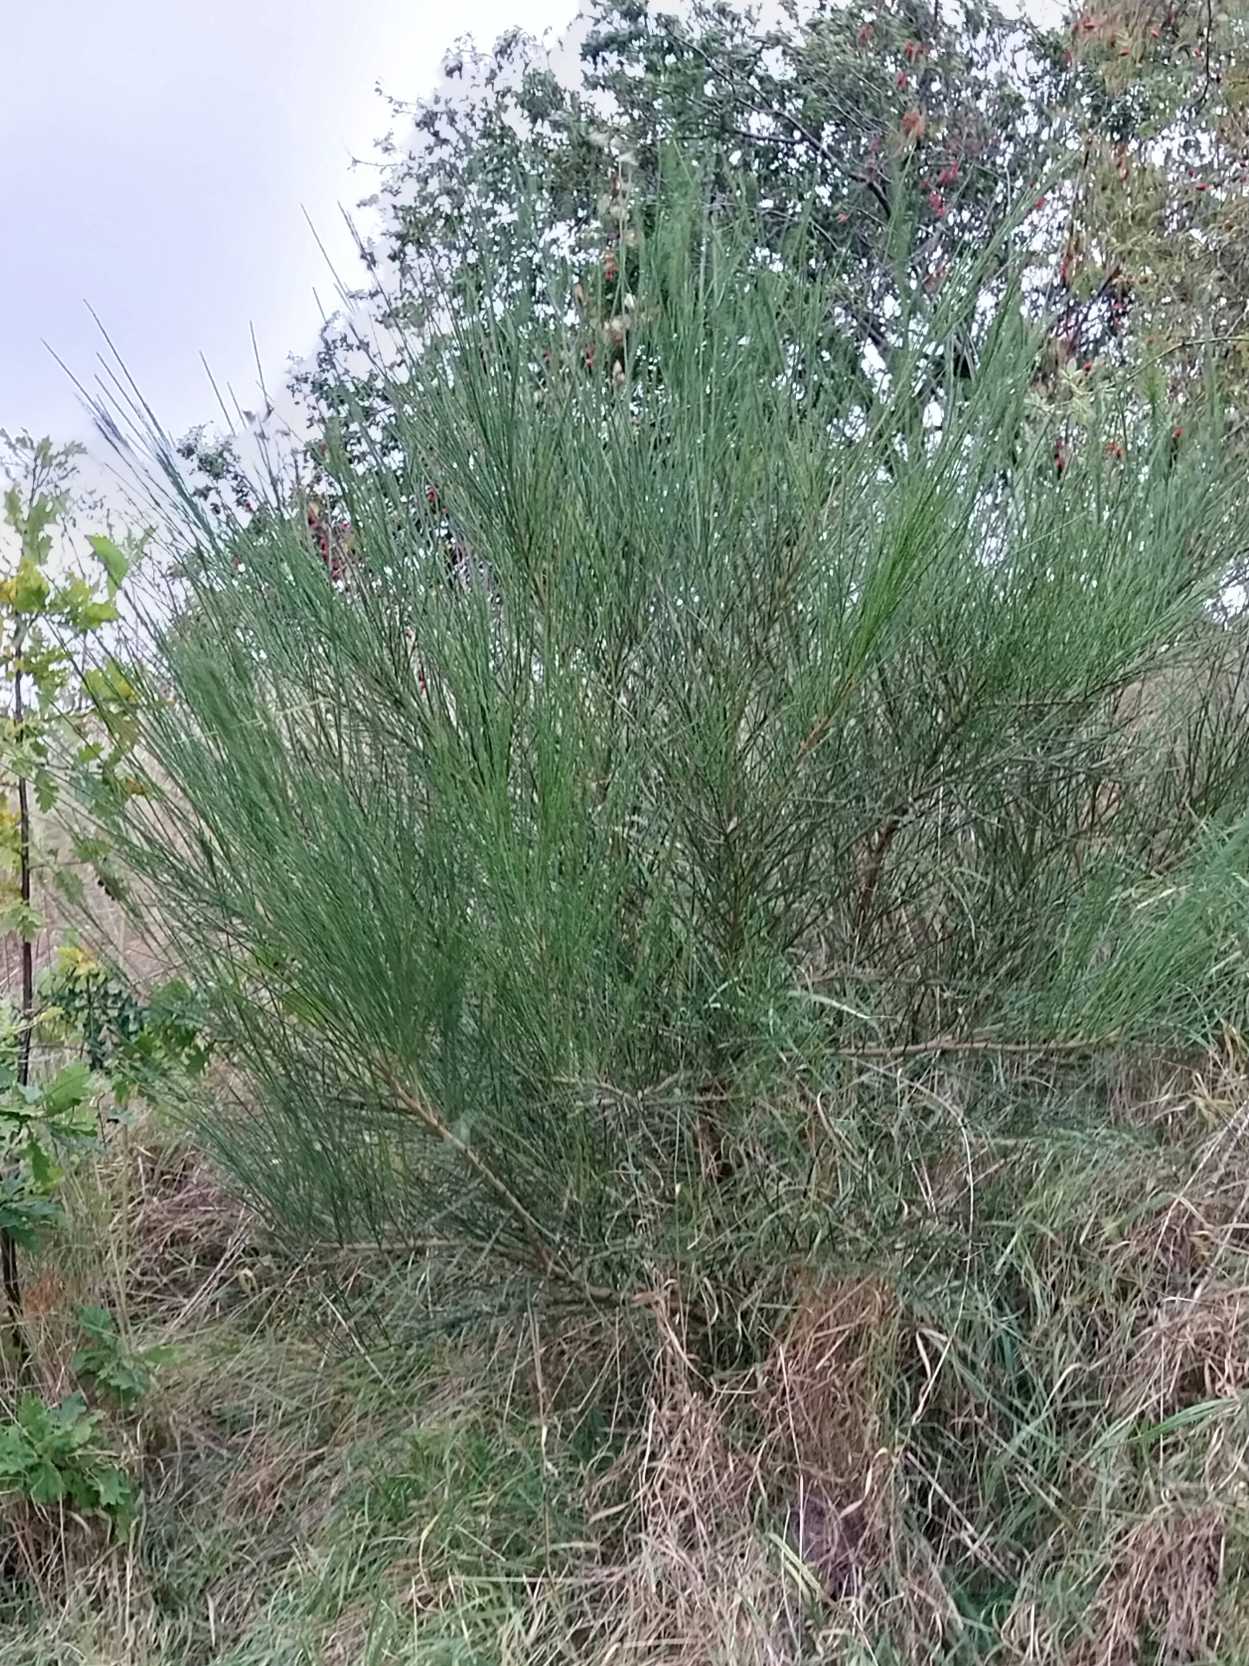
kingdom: Plantae
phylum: Tracheophyta
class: Magnoliopsida
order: Fabales
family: Fabaceae
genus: Cytisus
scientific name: Cytisus scoparius
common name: Almindelig gyvel
